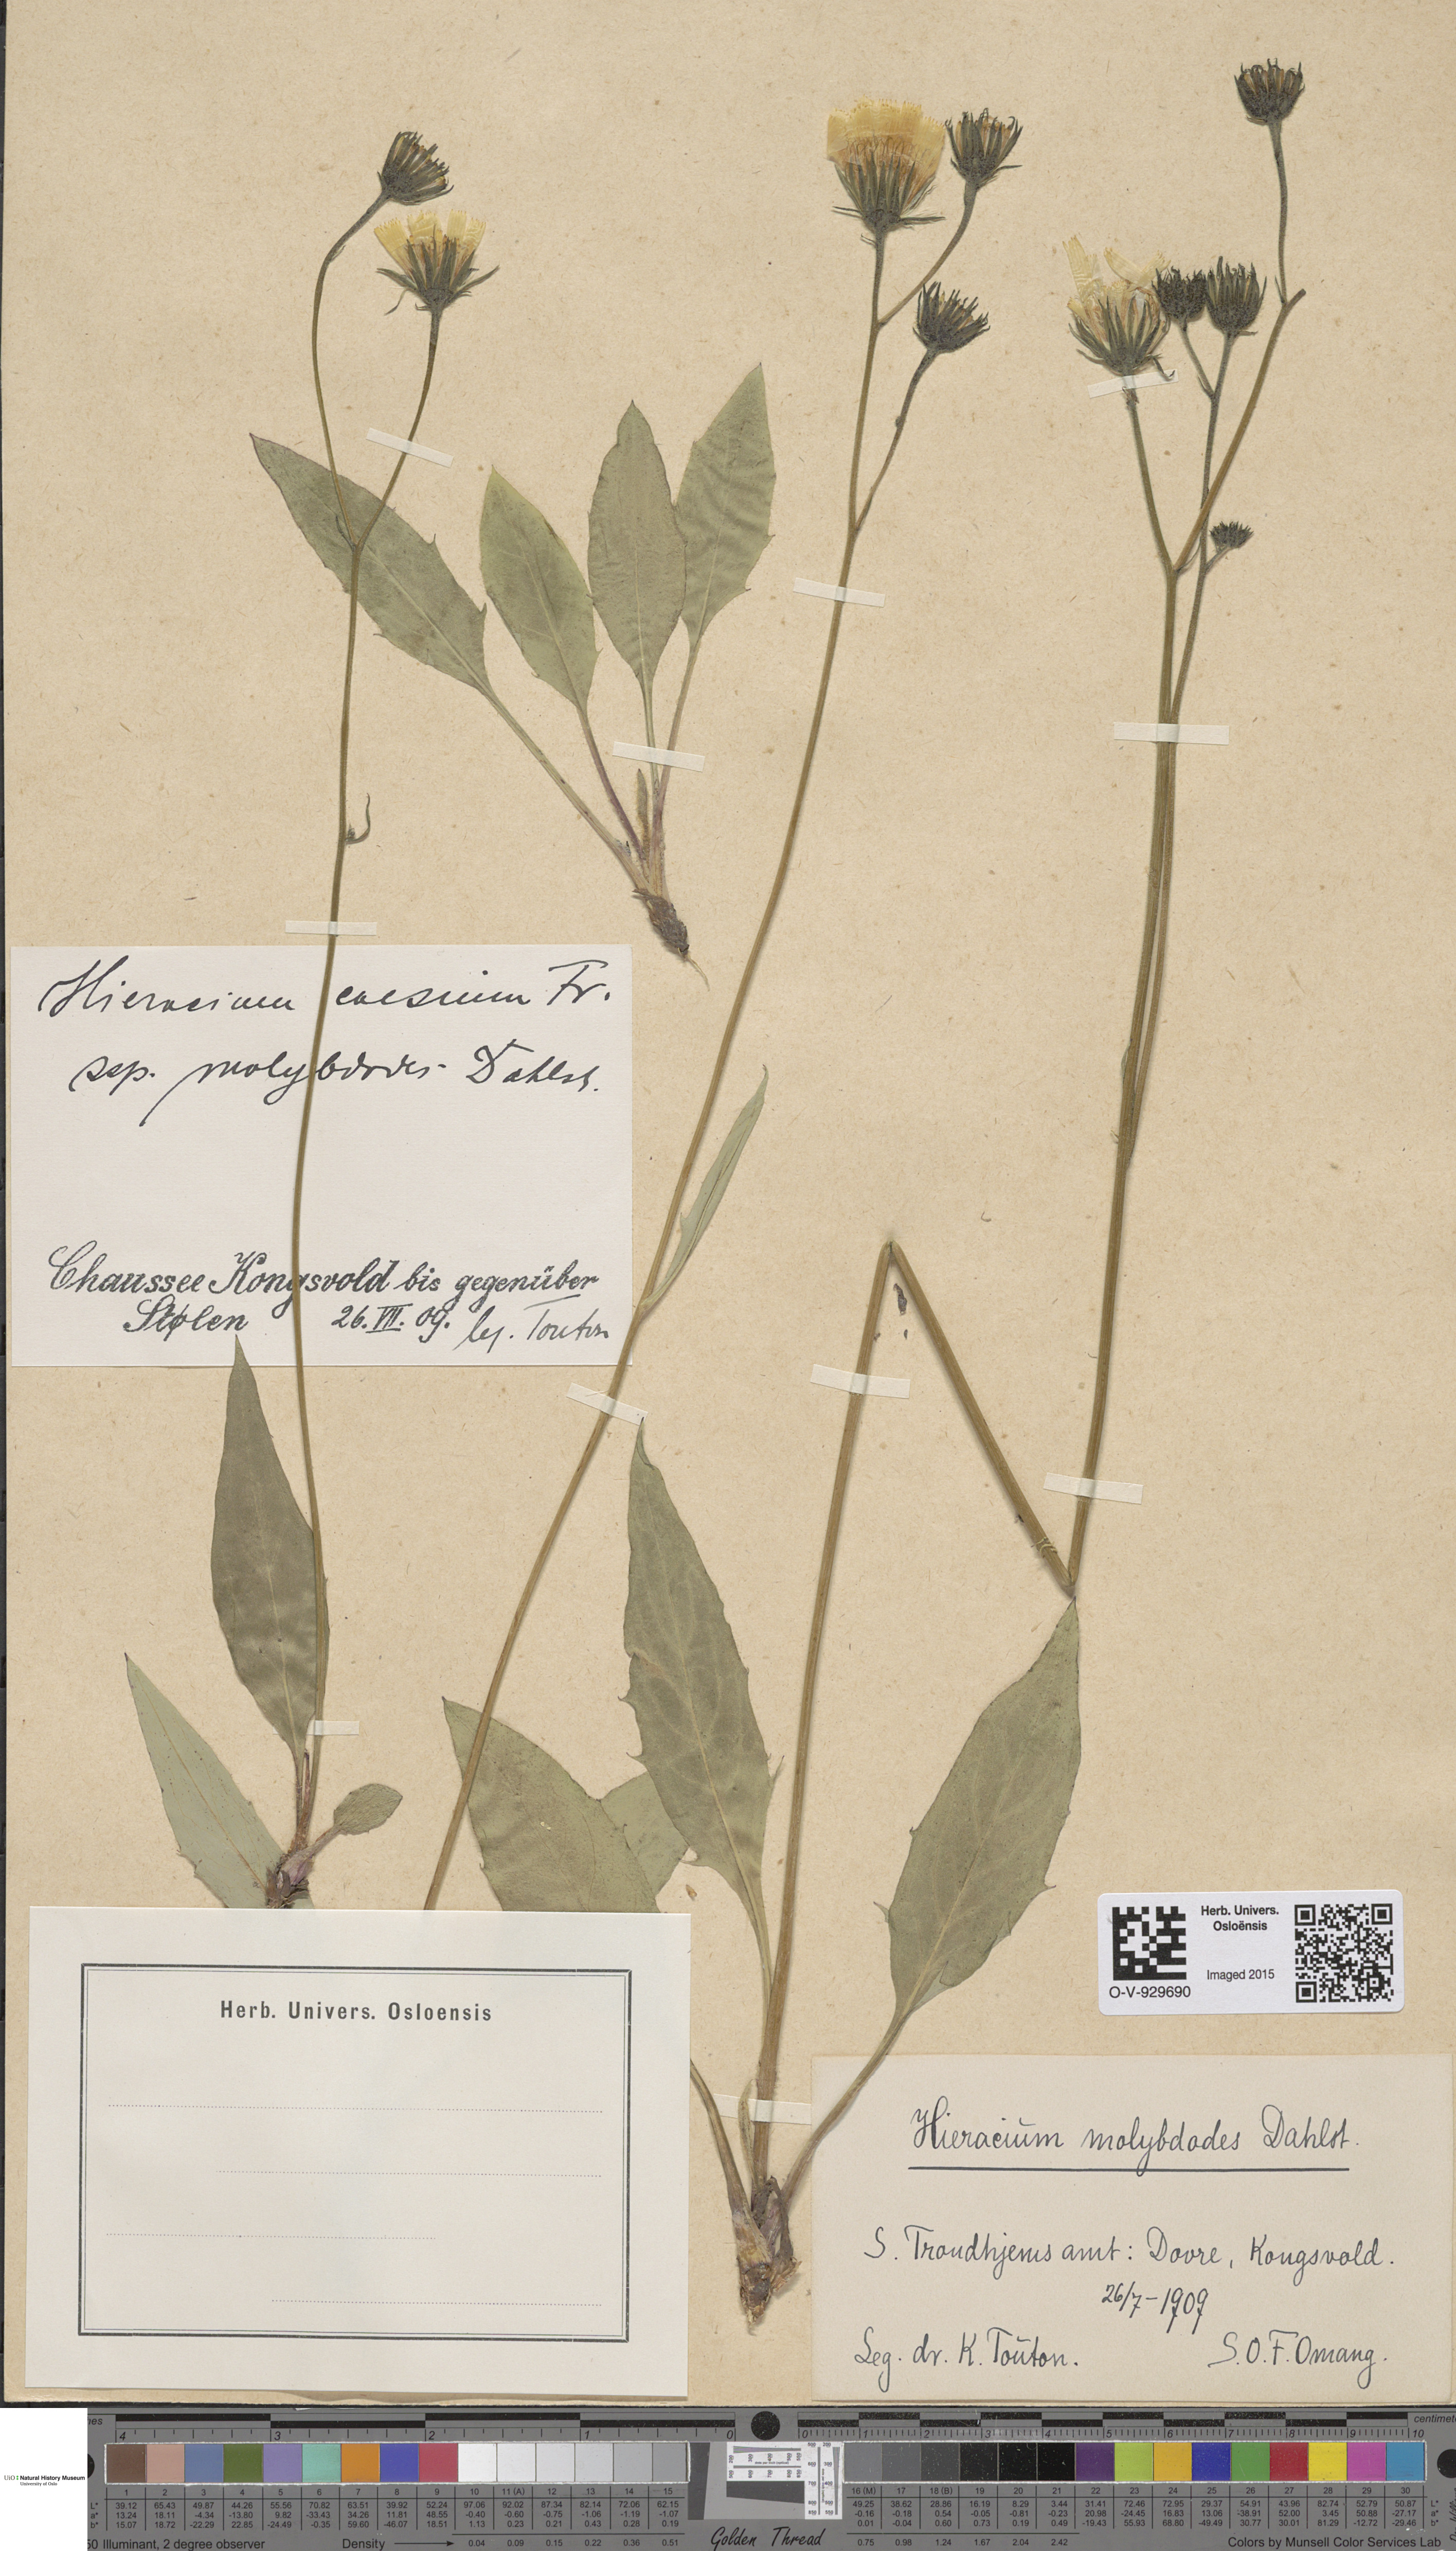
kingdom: Plantae
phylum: Tracheophyta
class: Magnoliopsida
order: Asterales
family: Asteraceae
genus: Hieracium
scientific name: Hieracium
